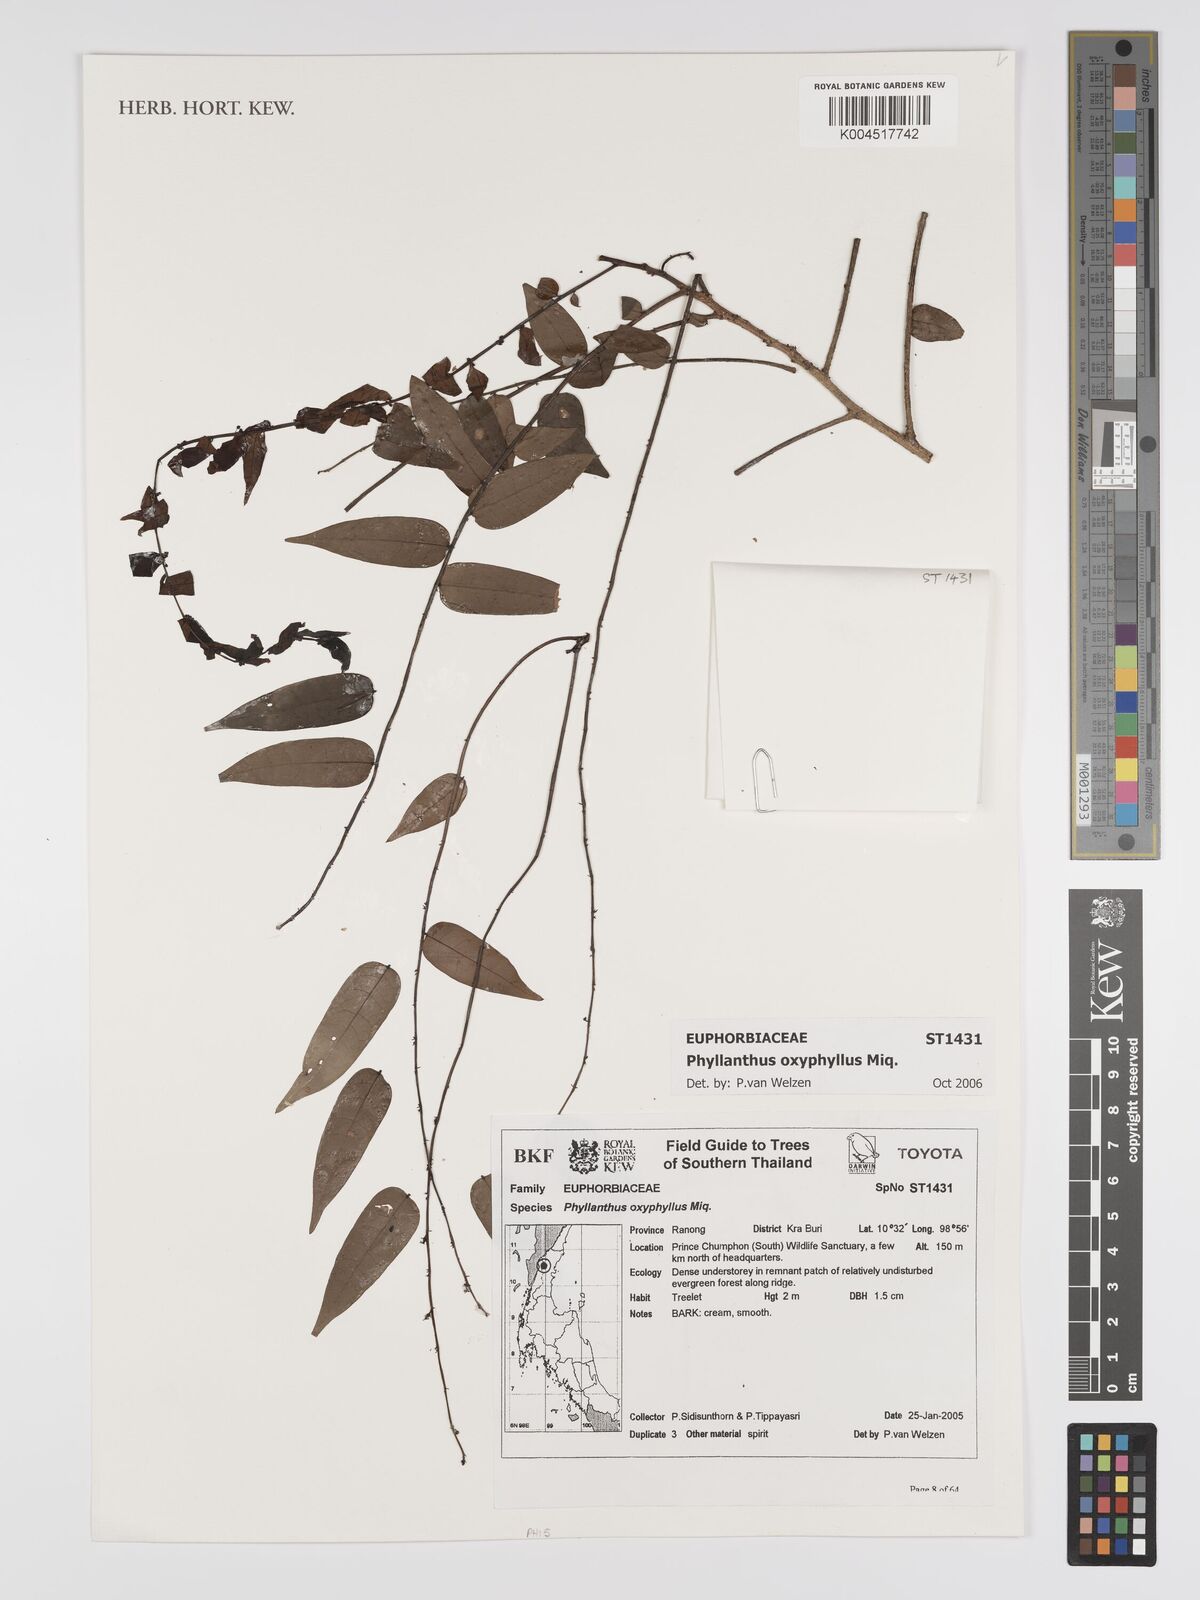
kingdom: Plantae
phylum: Tracheophyta
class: Magnoliopsida
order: Malpighiales
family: Phyllanthaceae
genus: Phyllanthus
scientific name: Phyllanthus
